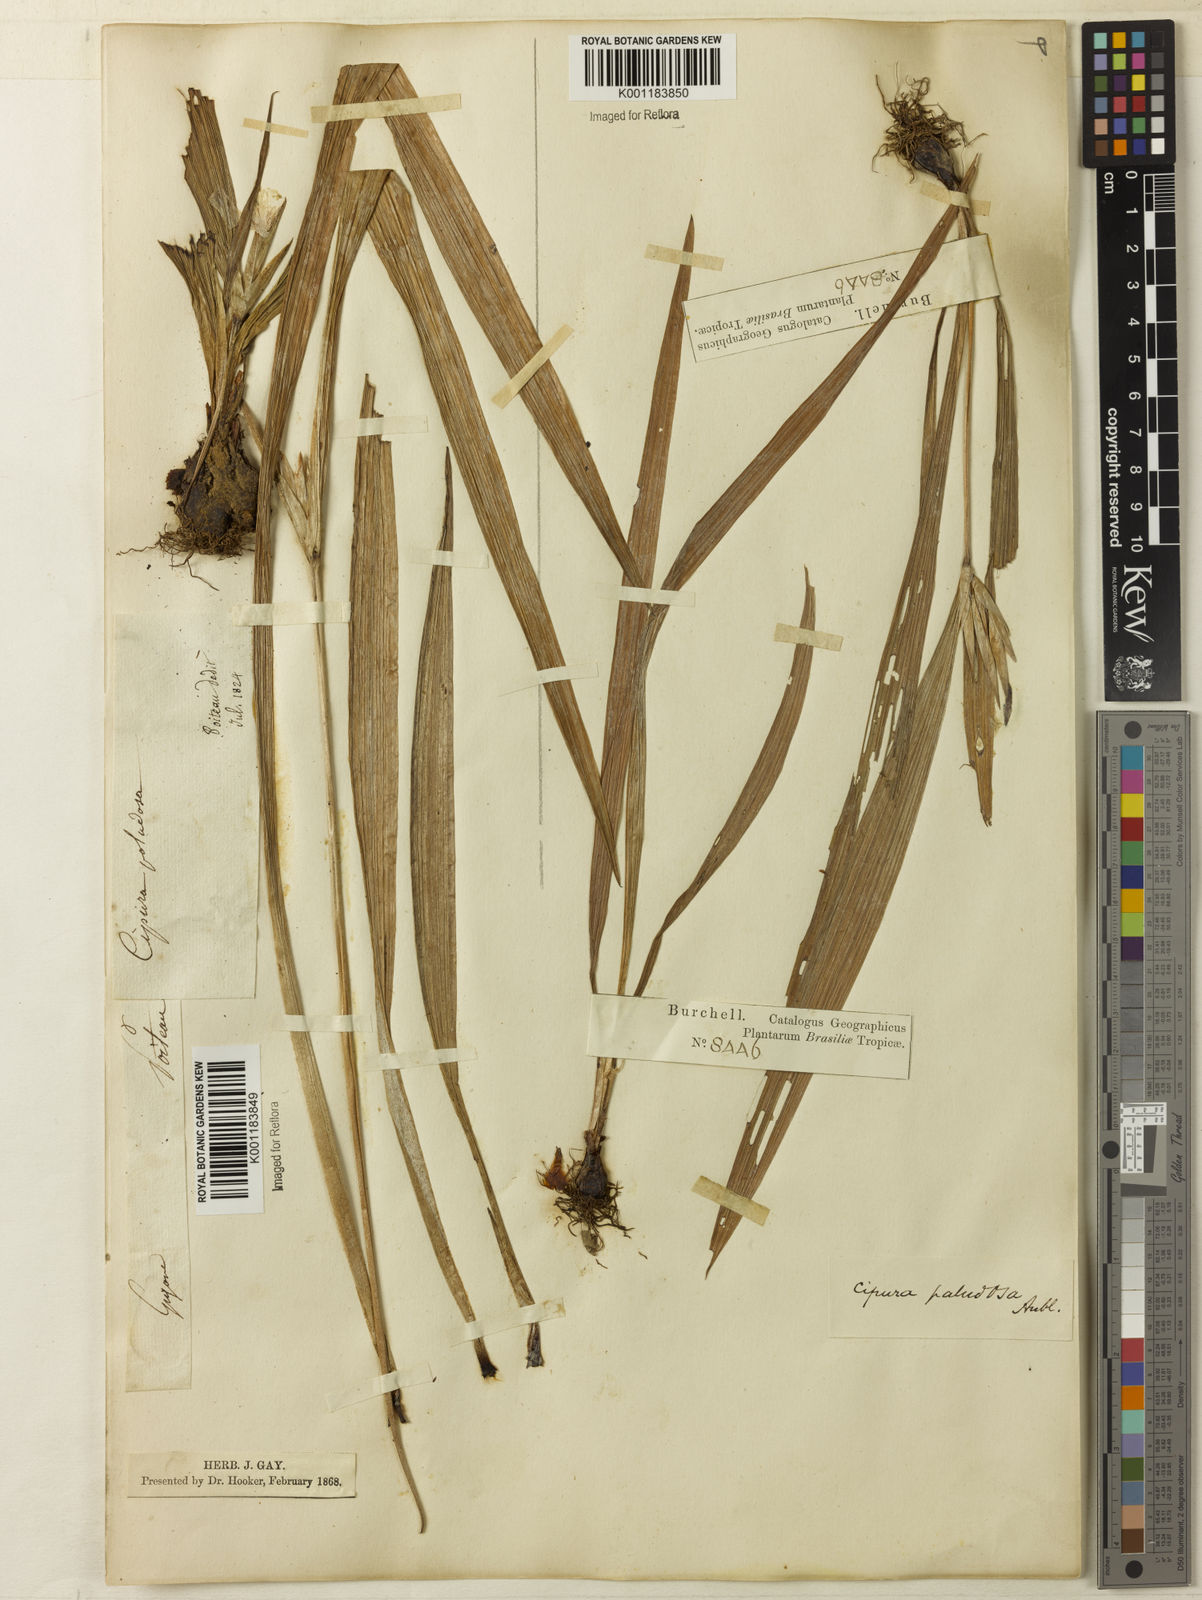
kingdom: Plantae
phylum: Tracheophyta
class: Liliopsida
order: Asparagales
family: Iridaceae
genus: Cipura
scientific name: Cipura paludosa
